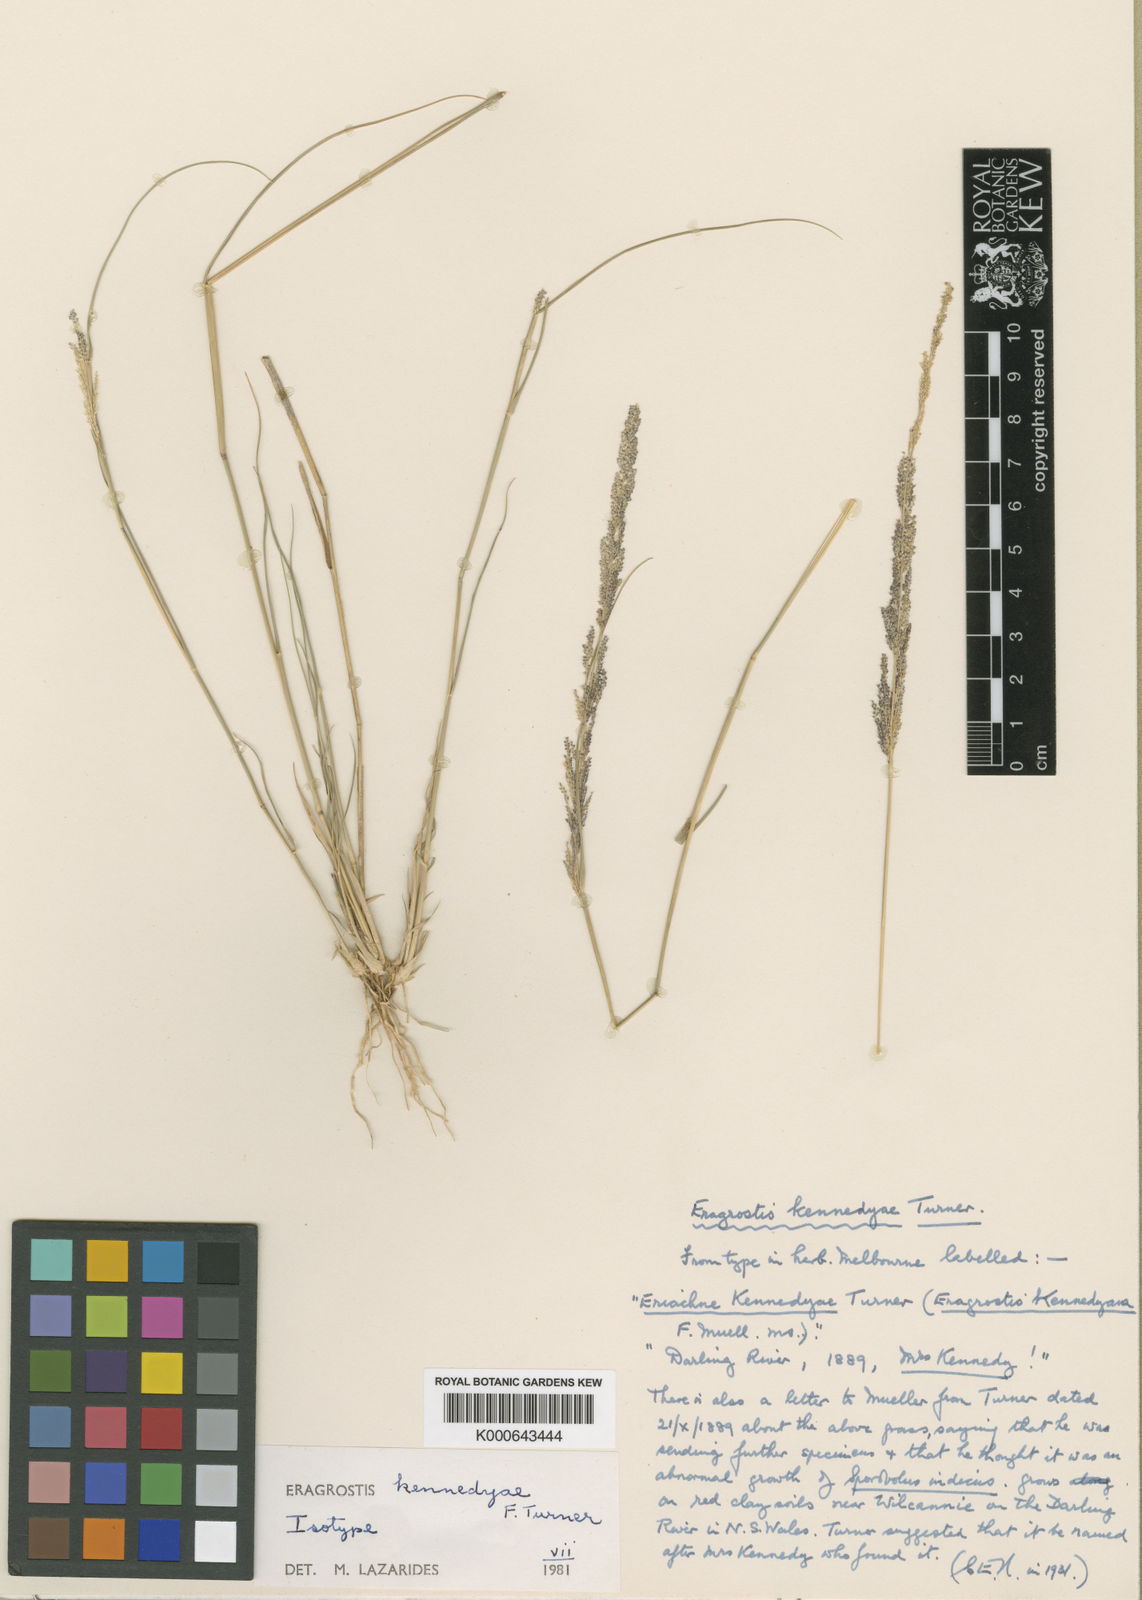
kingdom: Plantae
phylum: Tracheophyta
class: Liliopsida
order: Poales
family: Poaceae
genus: Eragrostis
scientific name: Eragrostis kennedyae
